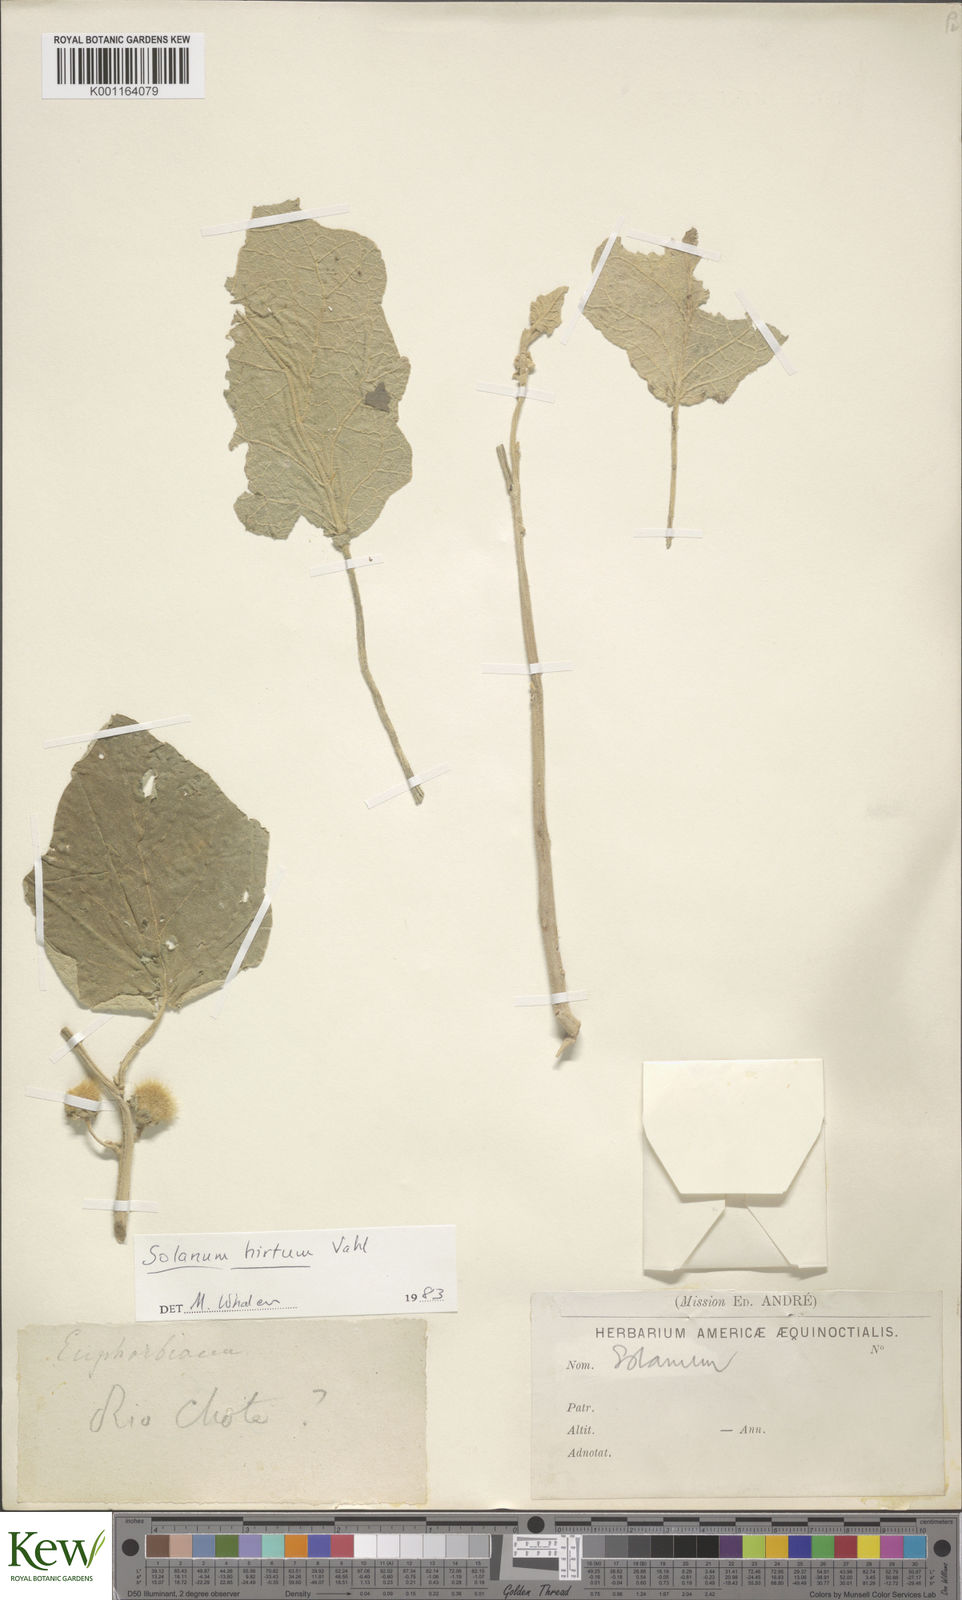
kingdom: Plantae
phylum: Tracheophyta
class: Magnoliopsida
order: Solanales
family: Solanaceae
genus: Solanum
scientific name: Solanum hirtum
